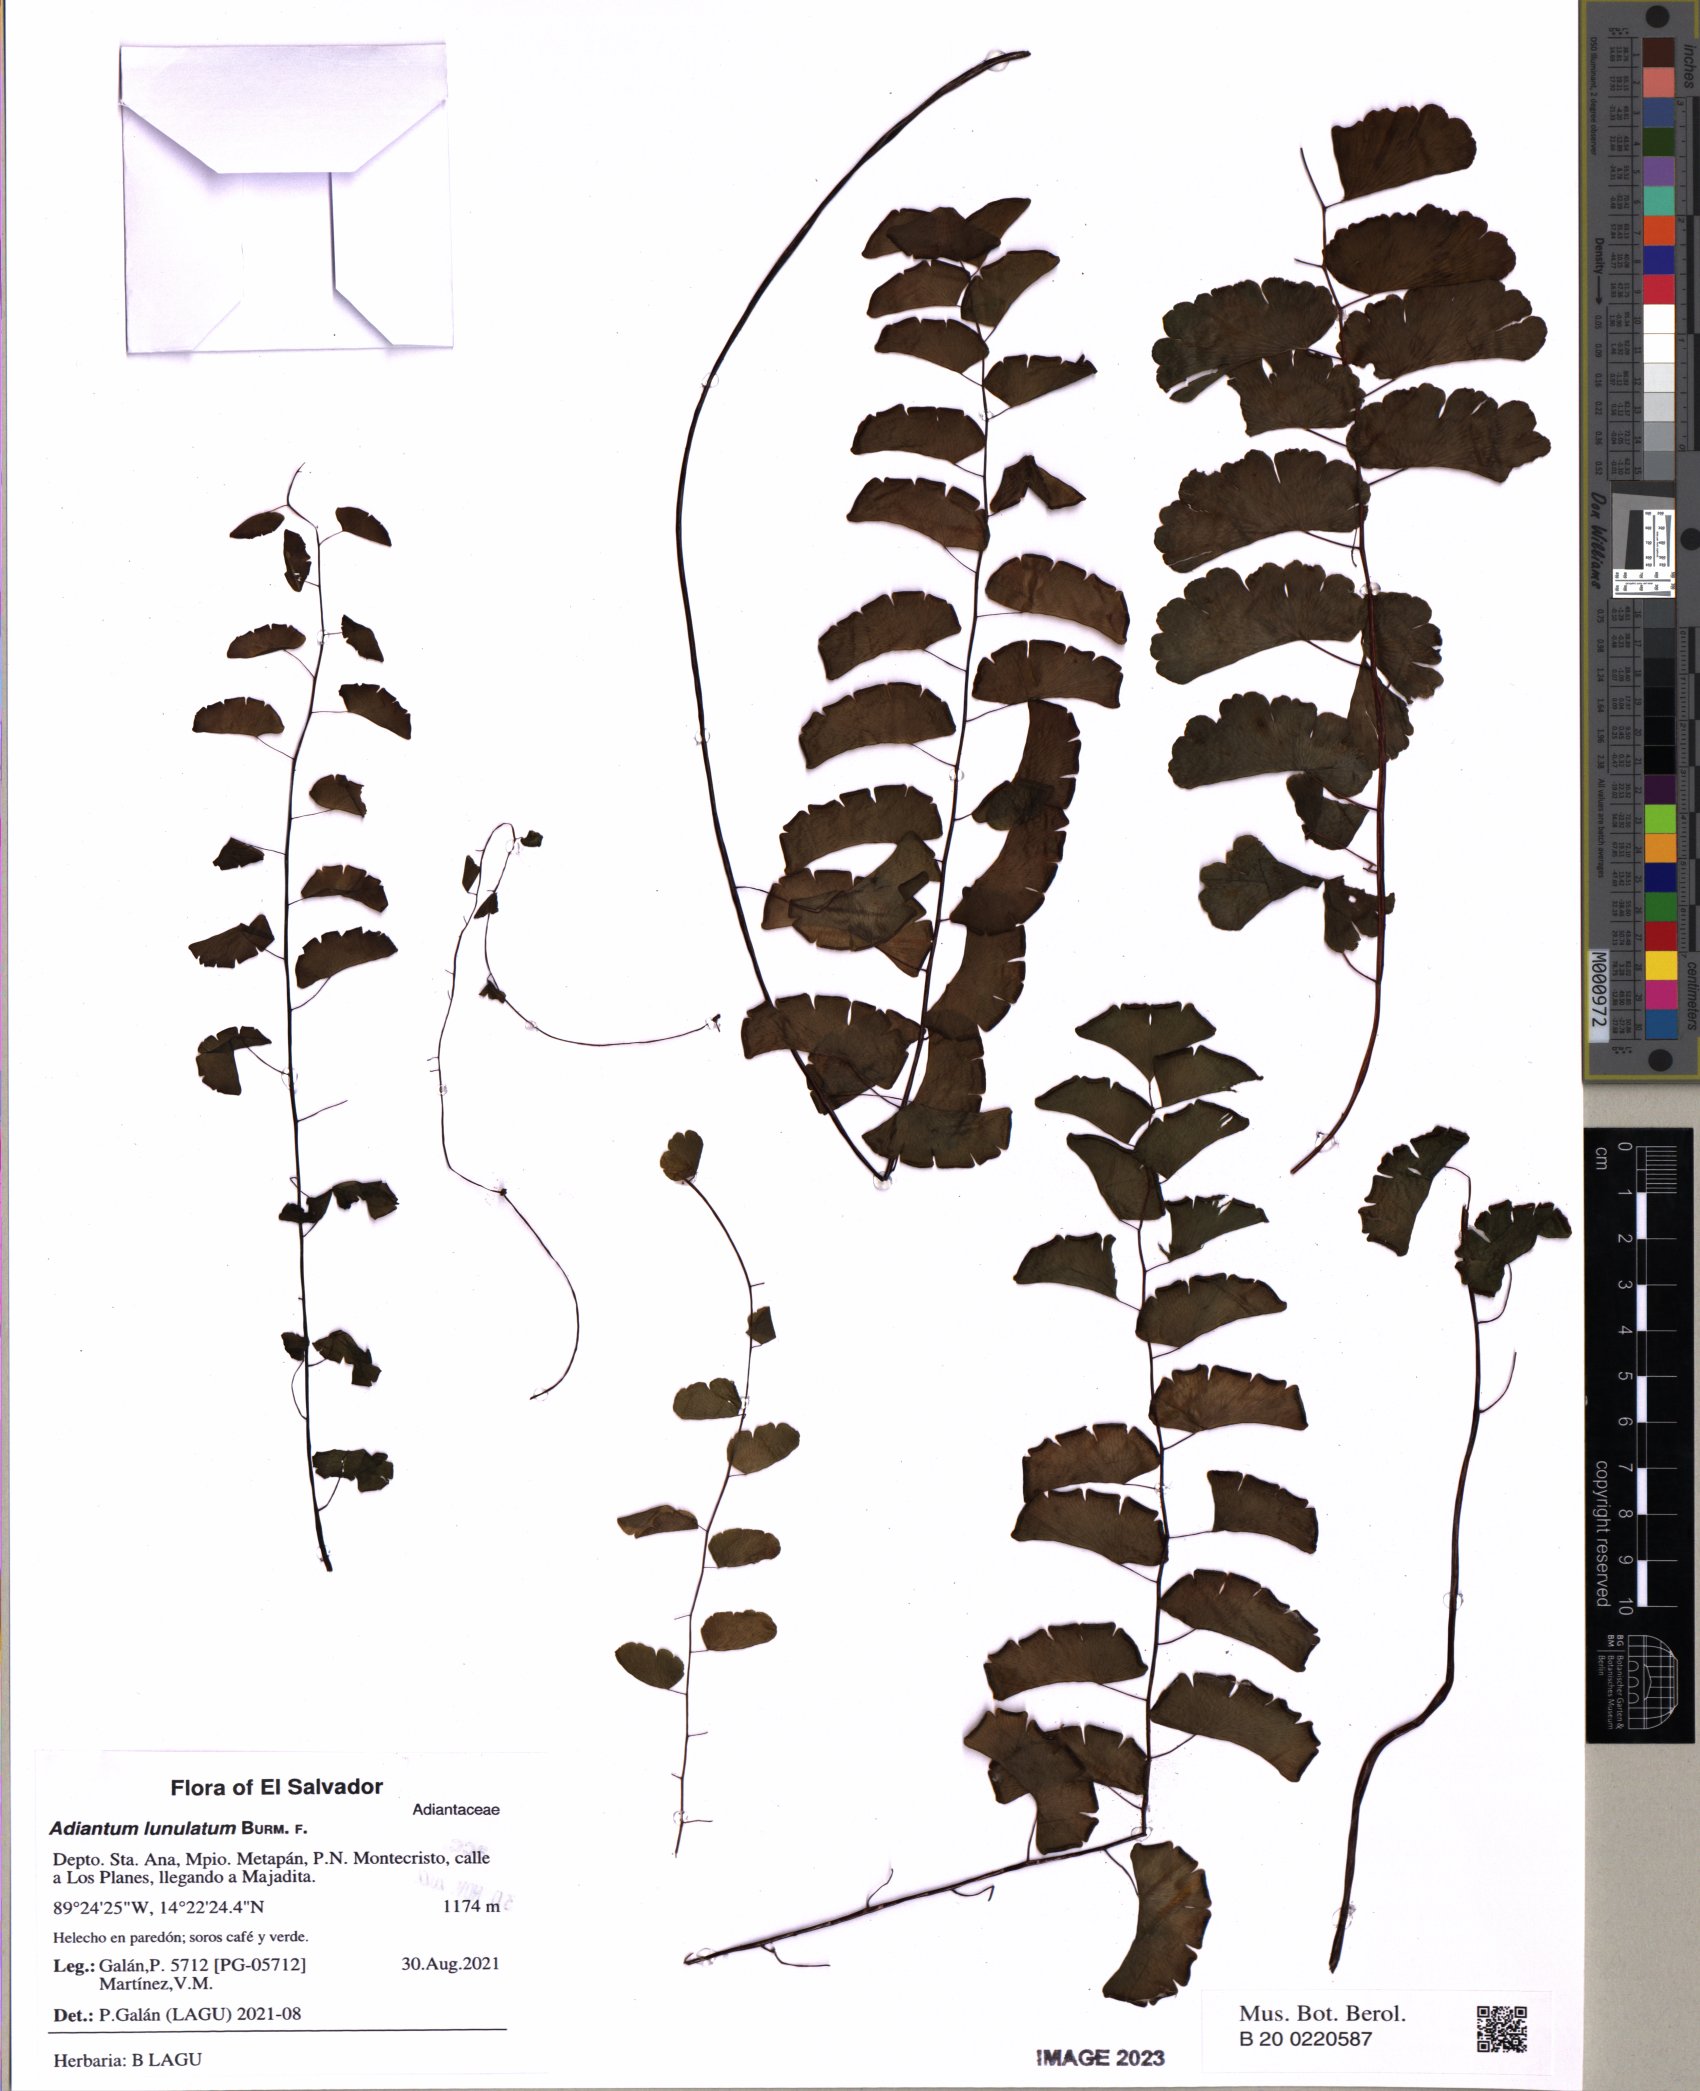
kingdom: Plantae
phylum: Tracheophyta
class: Polypodiopsida
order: Polypodiales
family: Pteridaceae
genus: Adiantum
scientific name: Adiantum philippense
